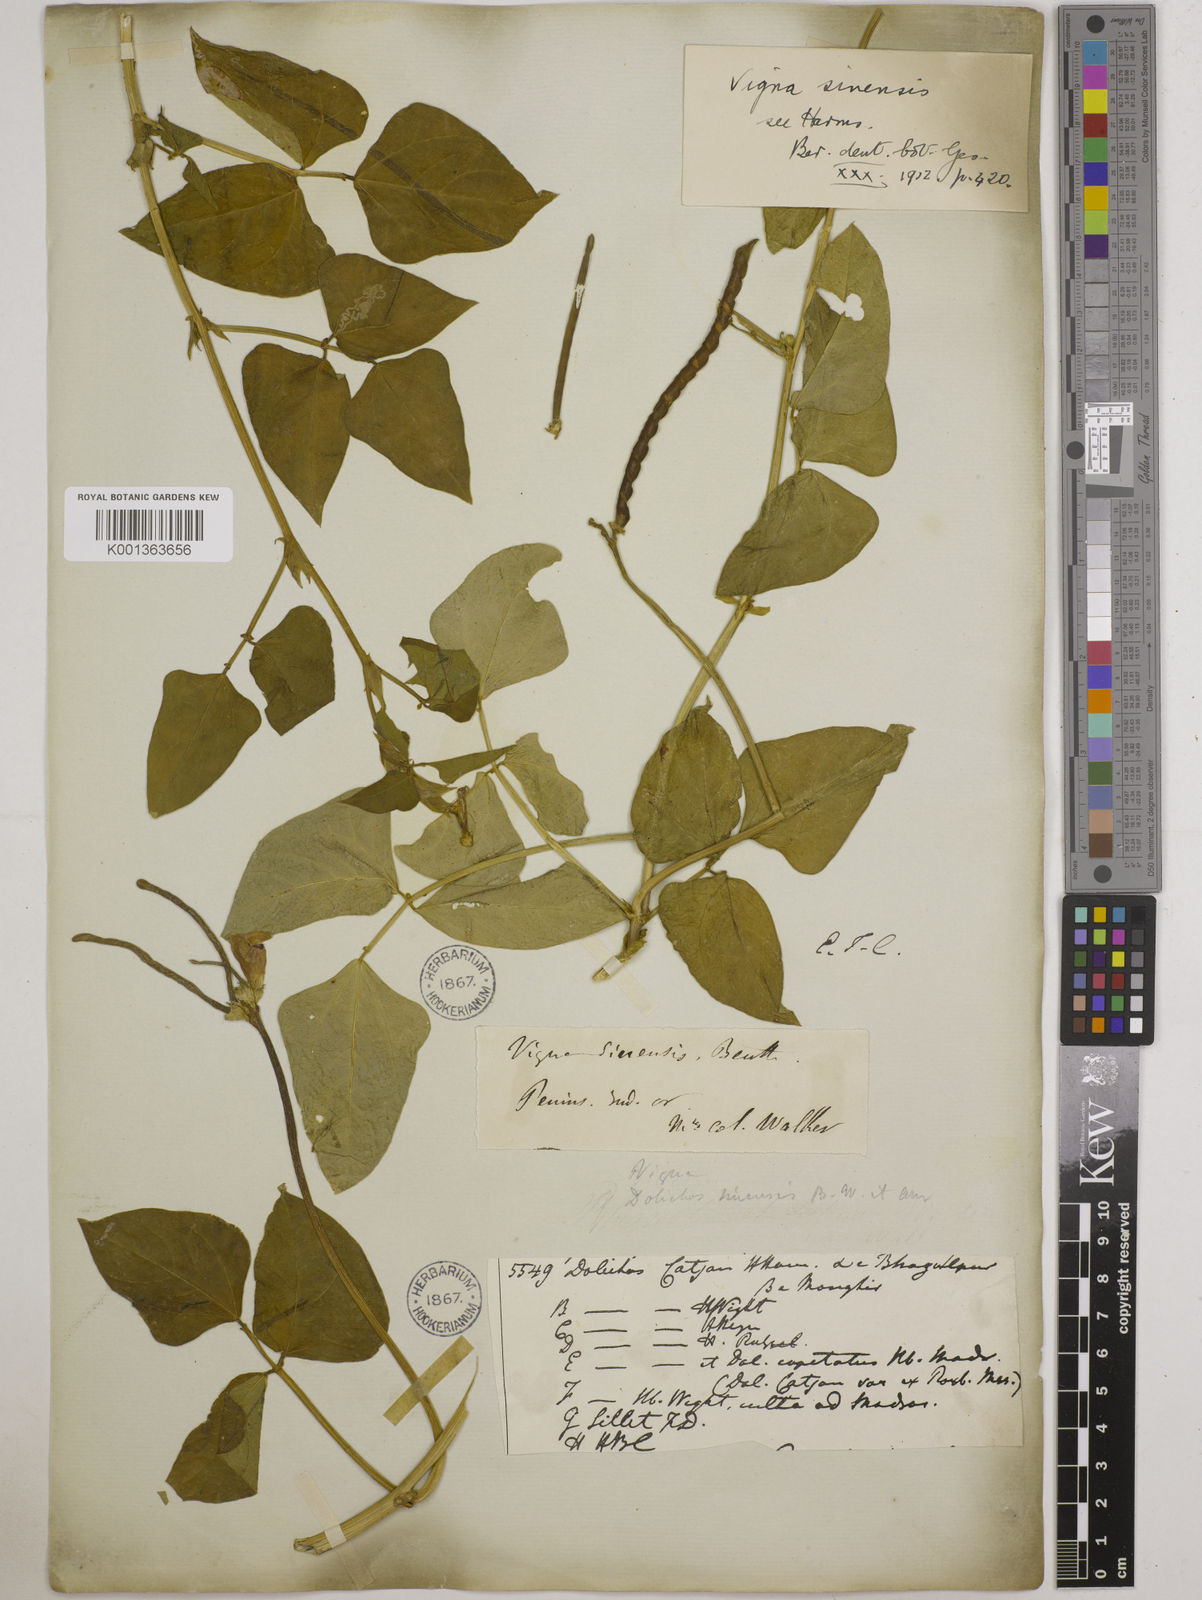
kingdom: Plantae
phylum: Tracheophyta
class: Magnoliopsida
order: Fabales
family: Fabaceae
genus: Vigna
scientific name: Vigna unguiculata
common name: Cowpea
